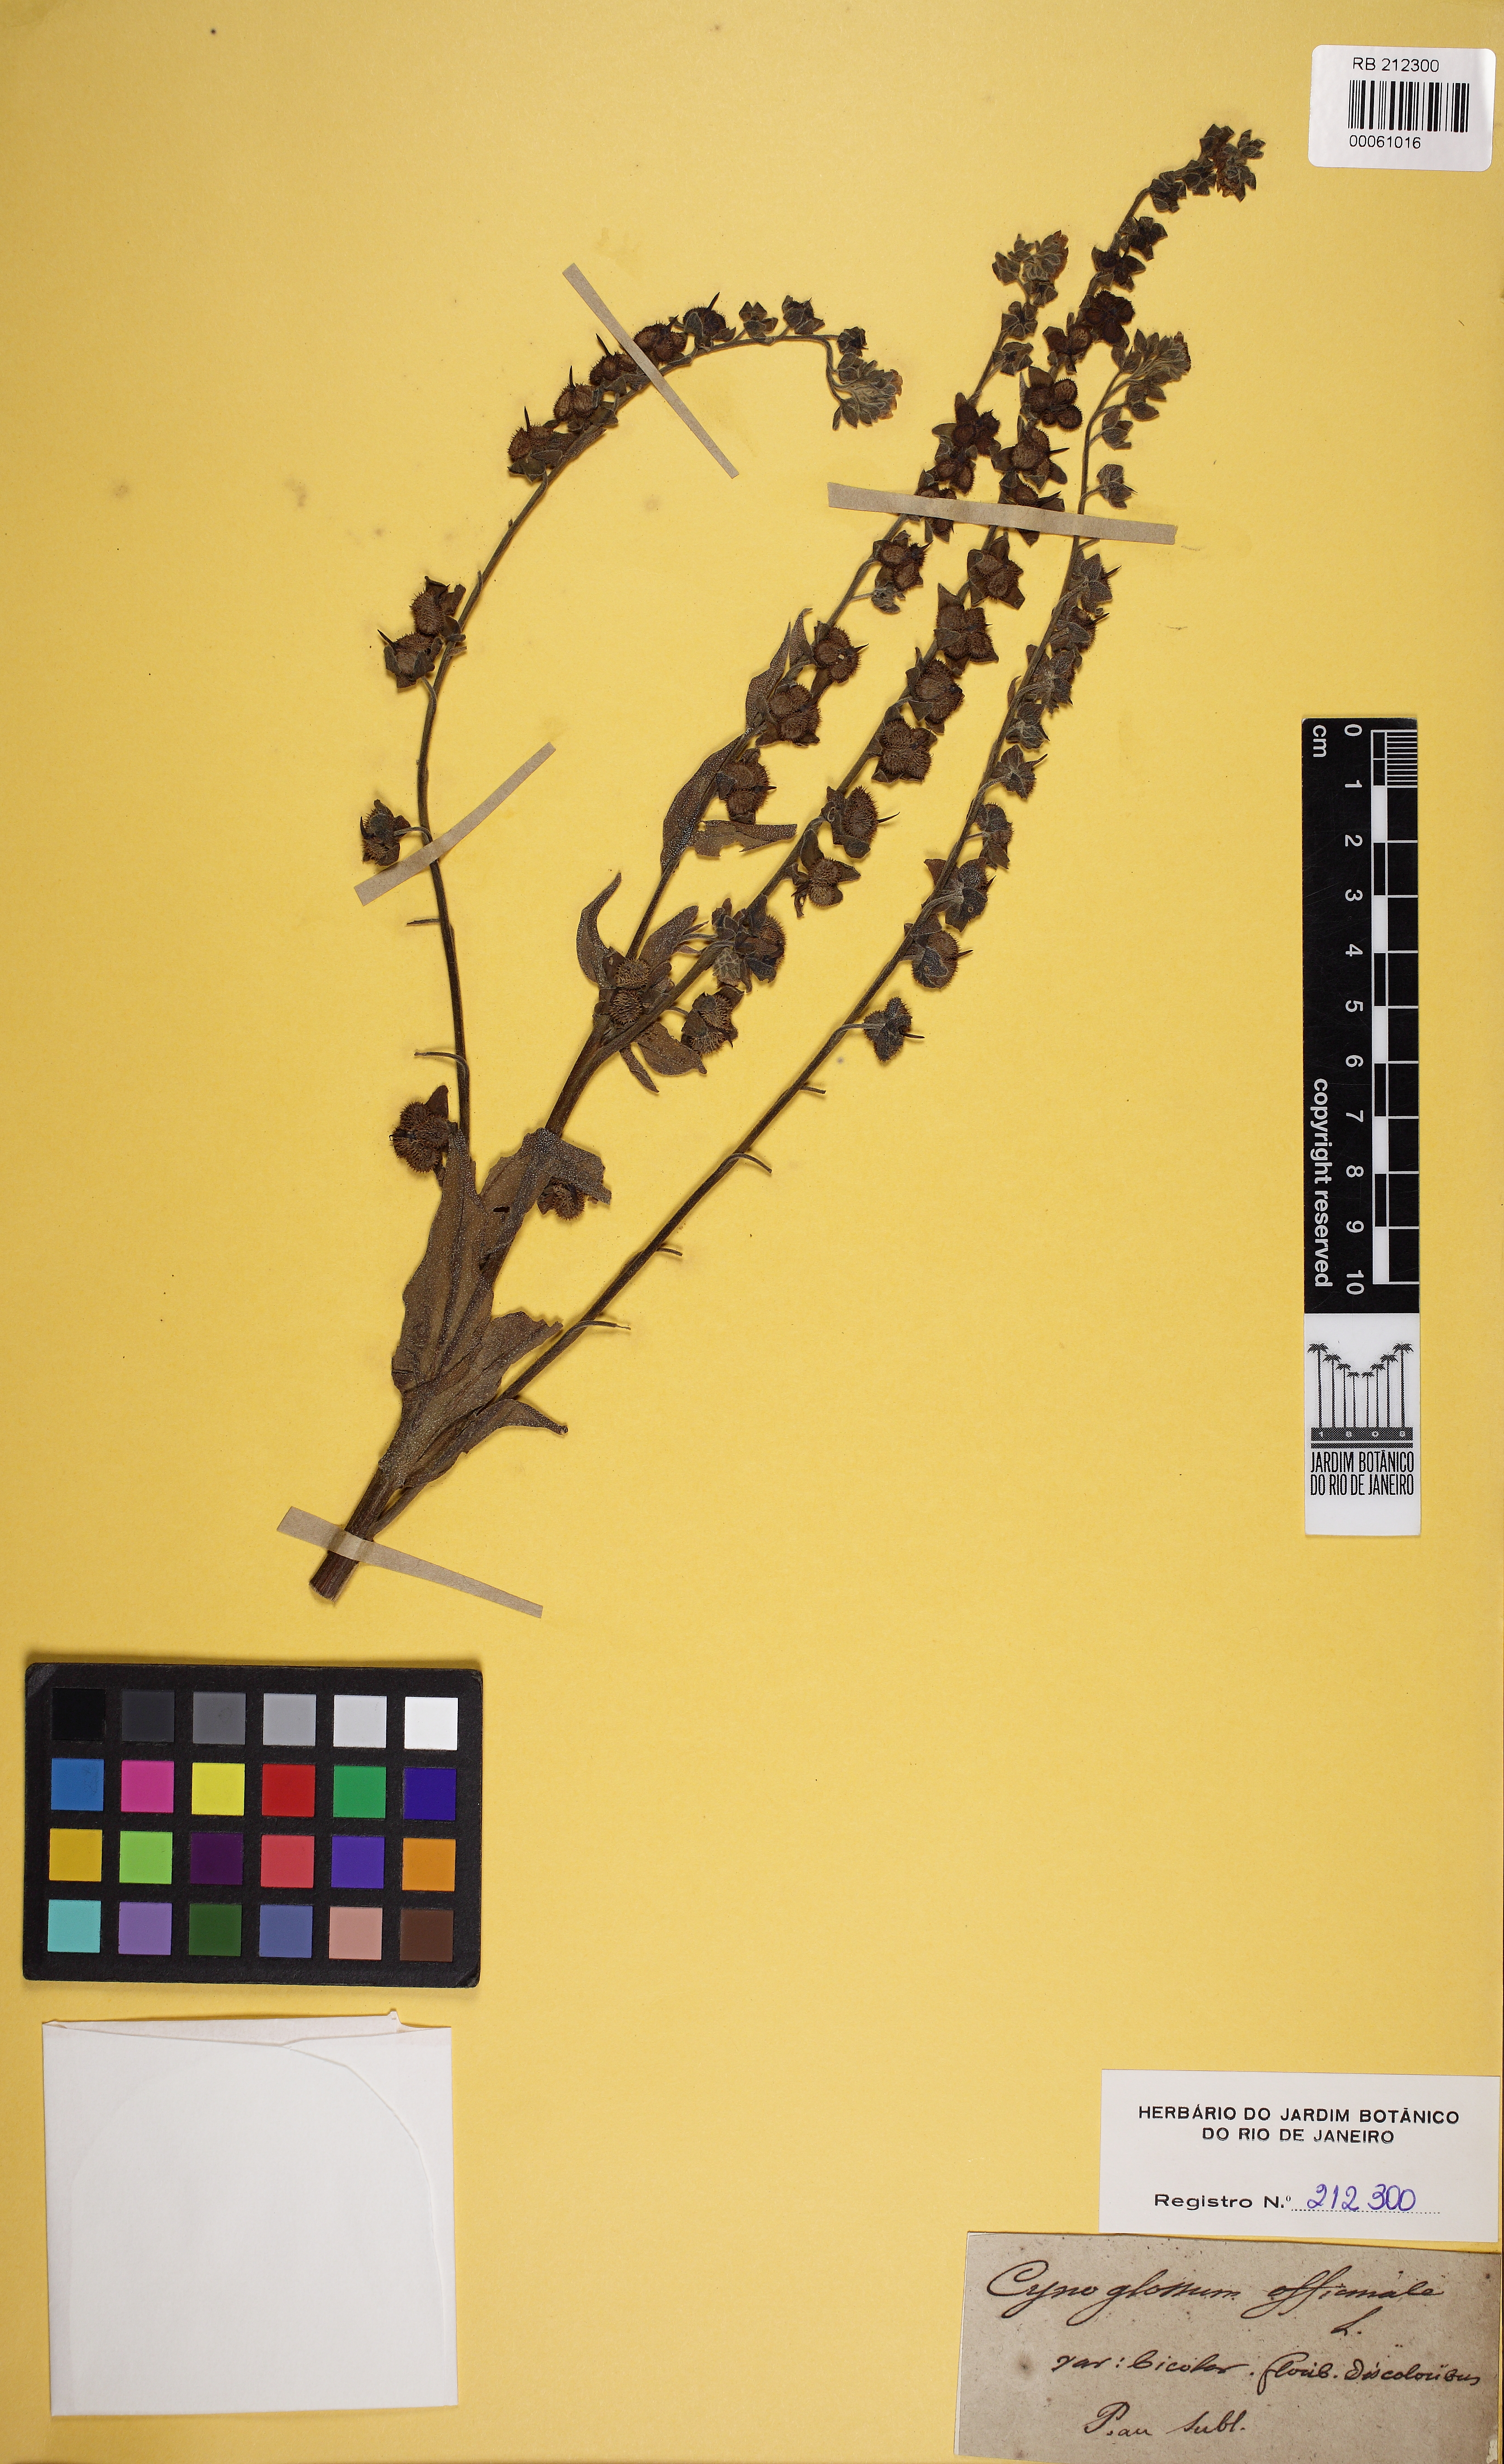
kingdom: Plantae
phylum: Tracheophyta
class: Magnoliopsida
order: Boraginales
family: Boraginaceae
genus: Cynoglossum
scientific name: Cynoglossum officinale
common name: Hound's-tongue
